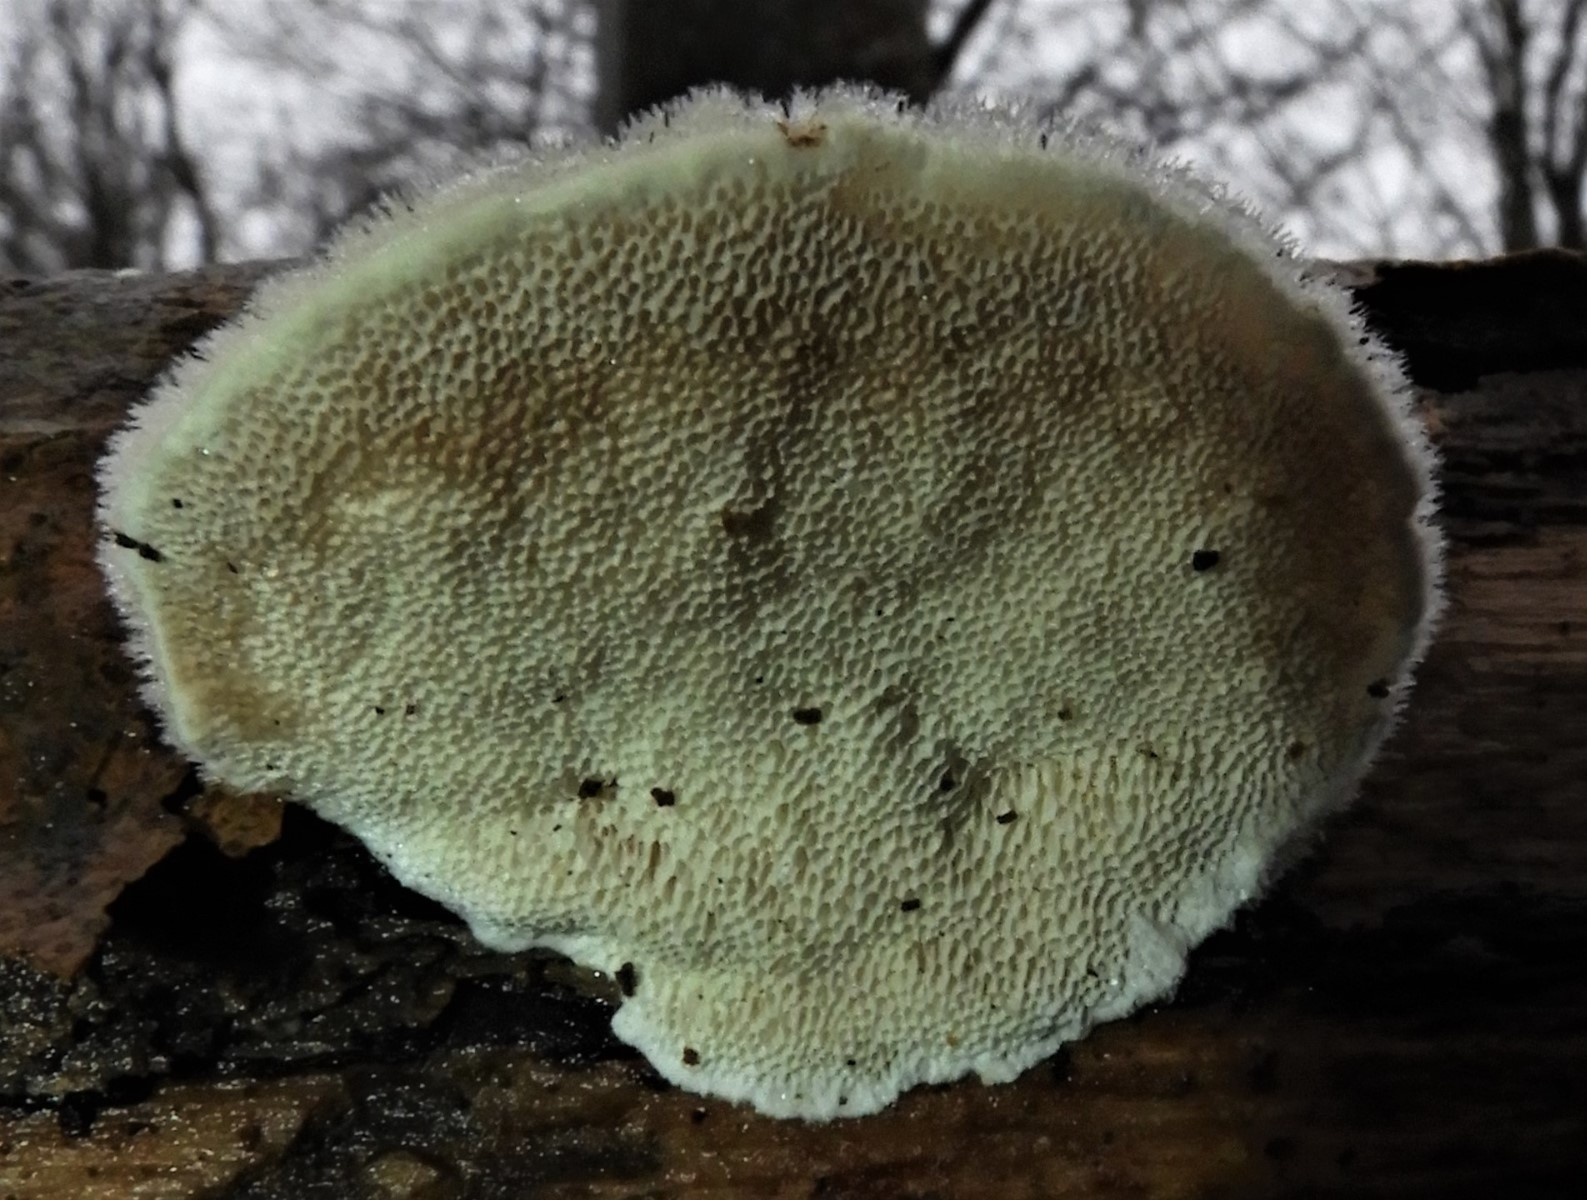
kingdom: Fungi
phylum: Basidiomycota
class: Agaricomycetes
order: Polyporales
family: Polyporaceae
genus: Trametes
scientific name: Trametes hirsuta
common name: håret læderporesvamp
